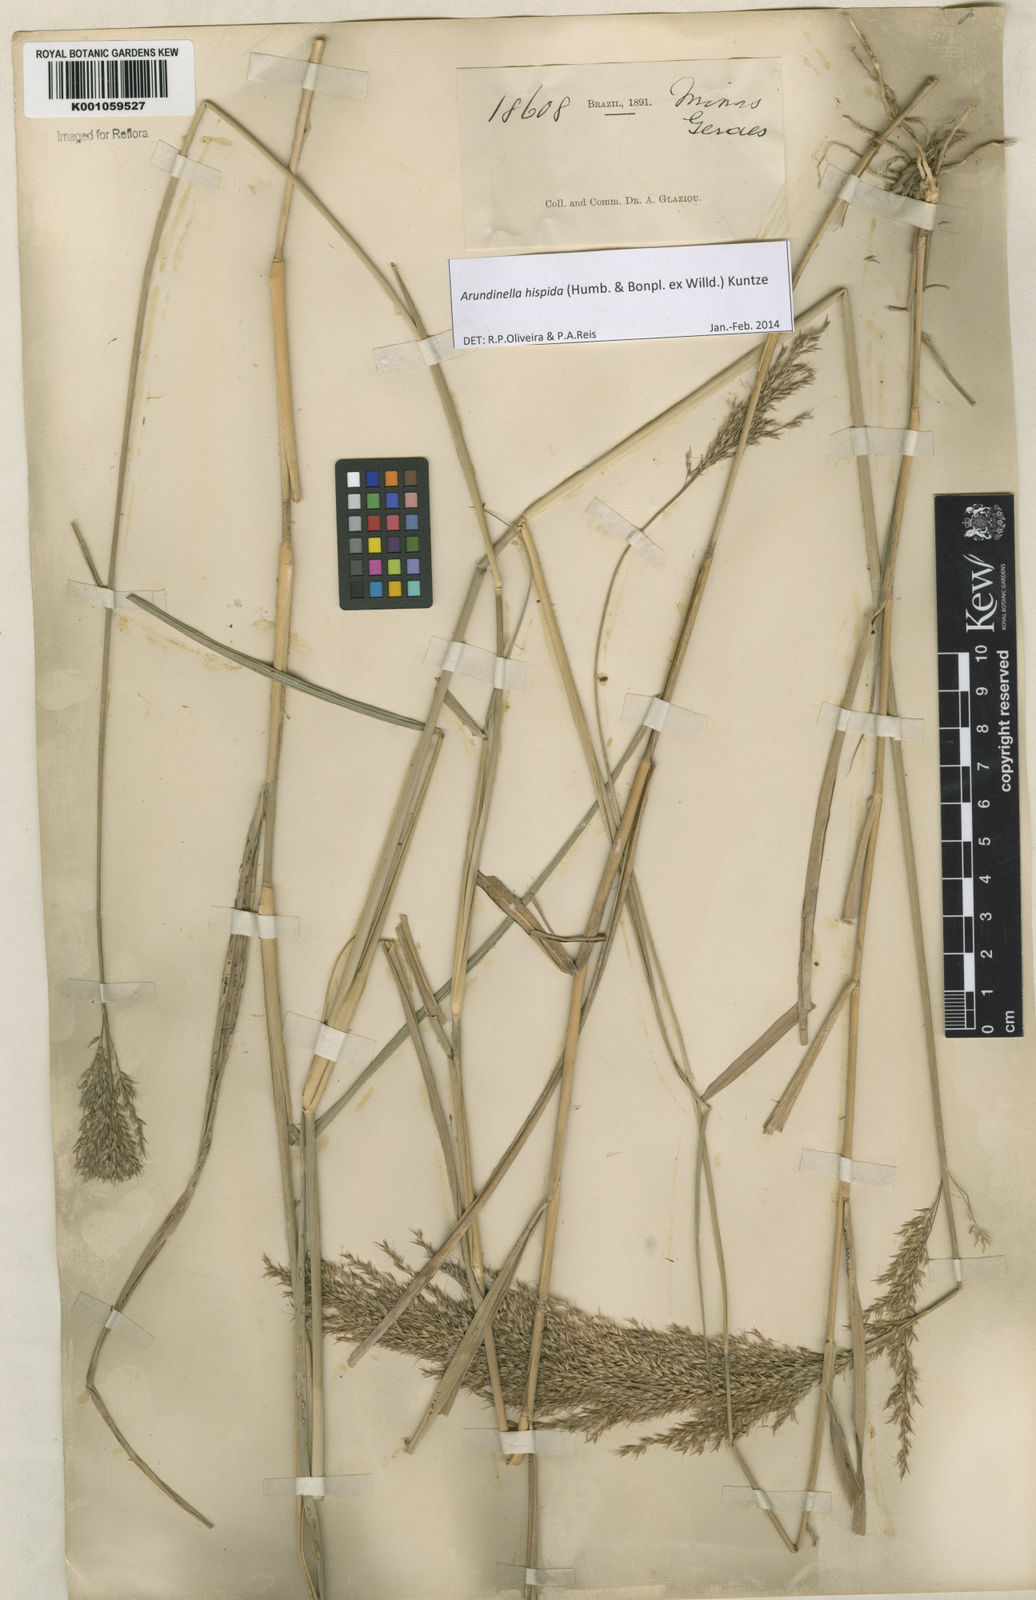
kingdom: Plantae
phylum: Tracheophyta
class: Liliopsida
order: Poales
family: Poaceae
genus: Arundinella
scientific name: Arundinella hispida
